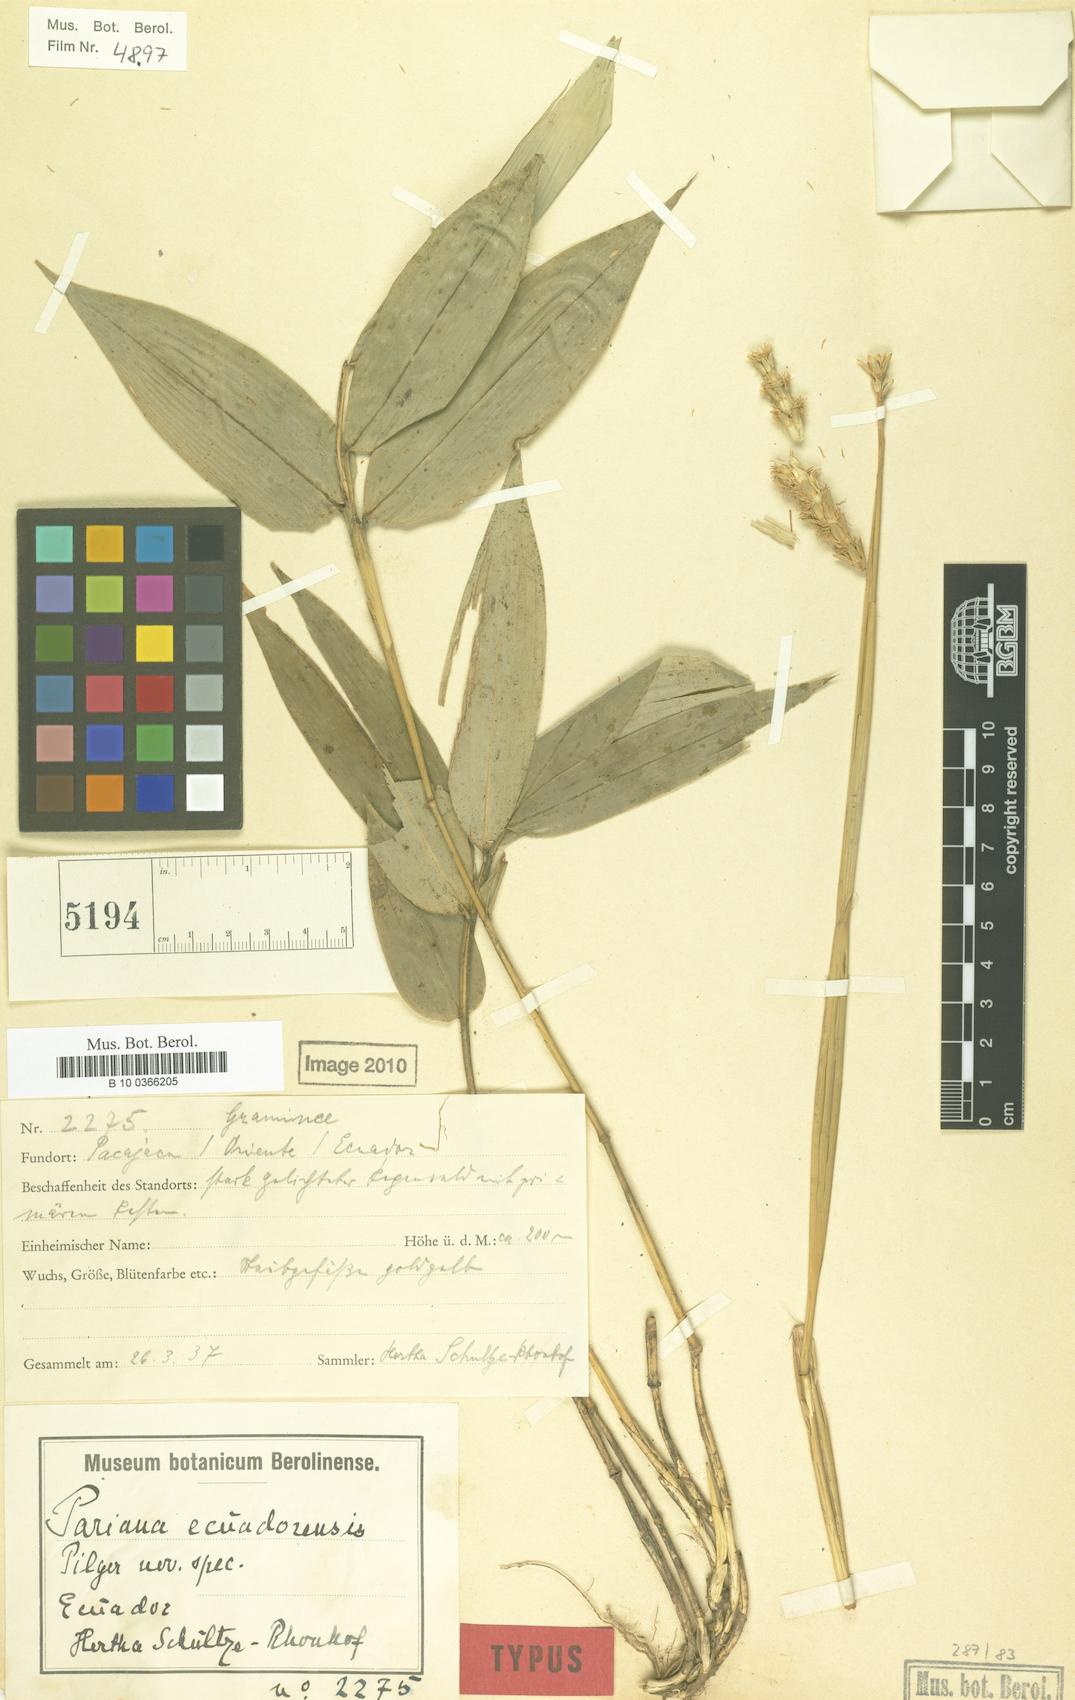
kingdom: Plantae
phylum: Tracheophyta
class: Liliopsida
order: Poales
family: Poaceae
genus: Pariana
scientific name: Pariana ecuadorensis
